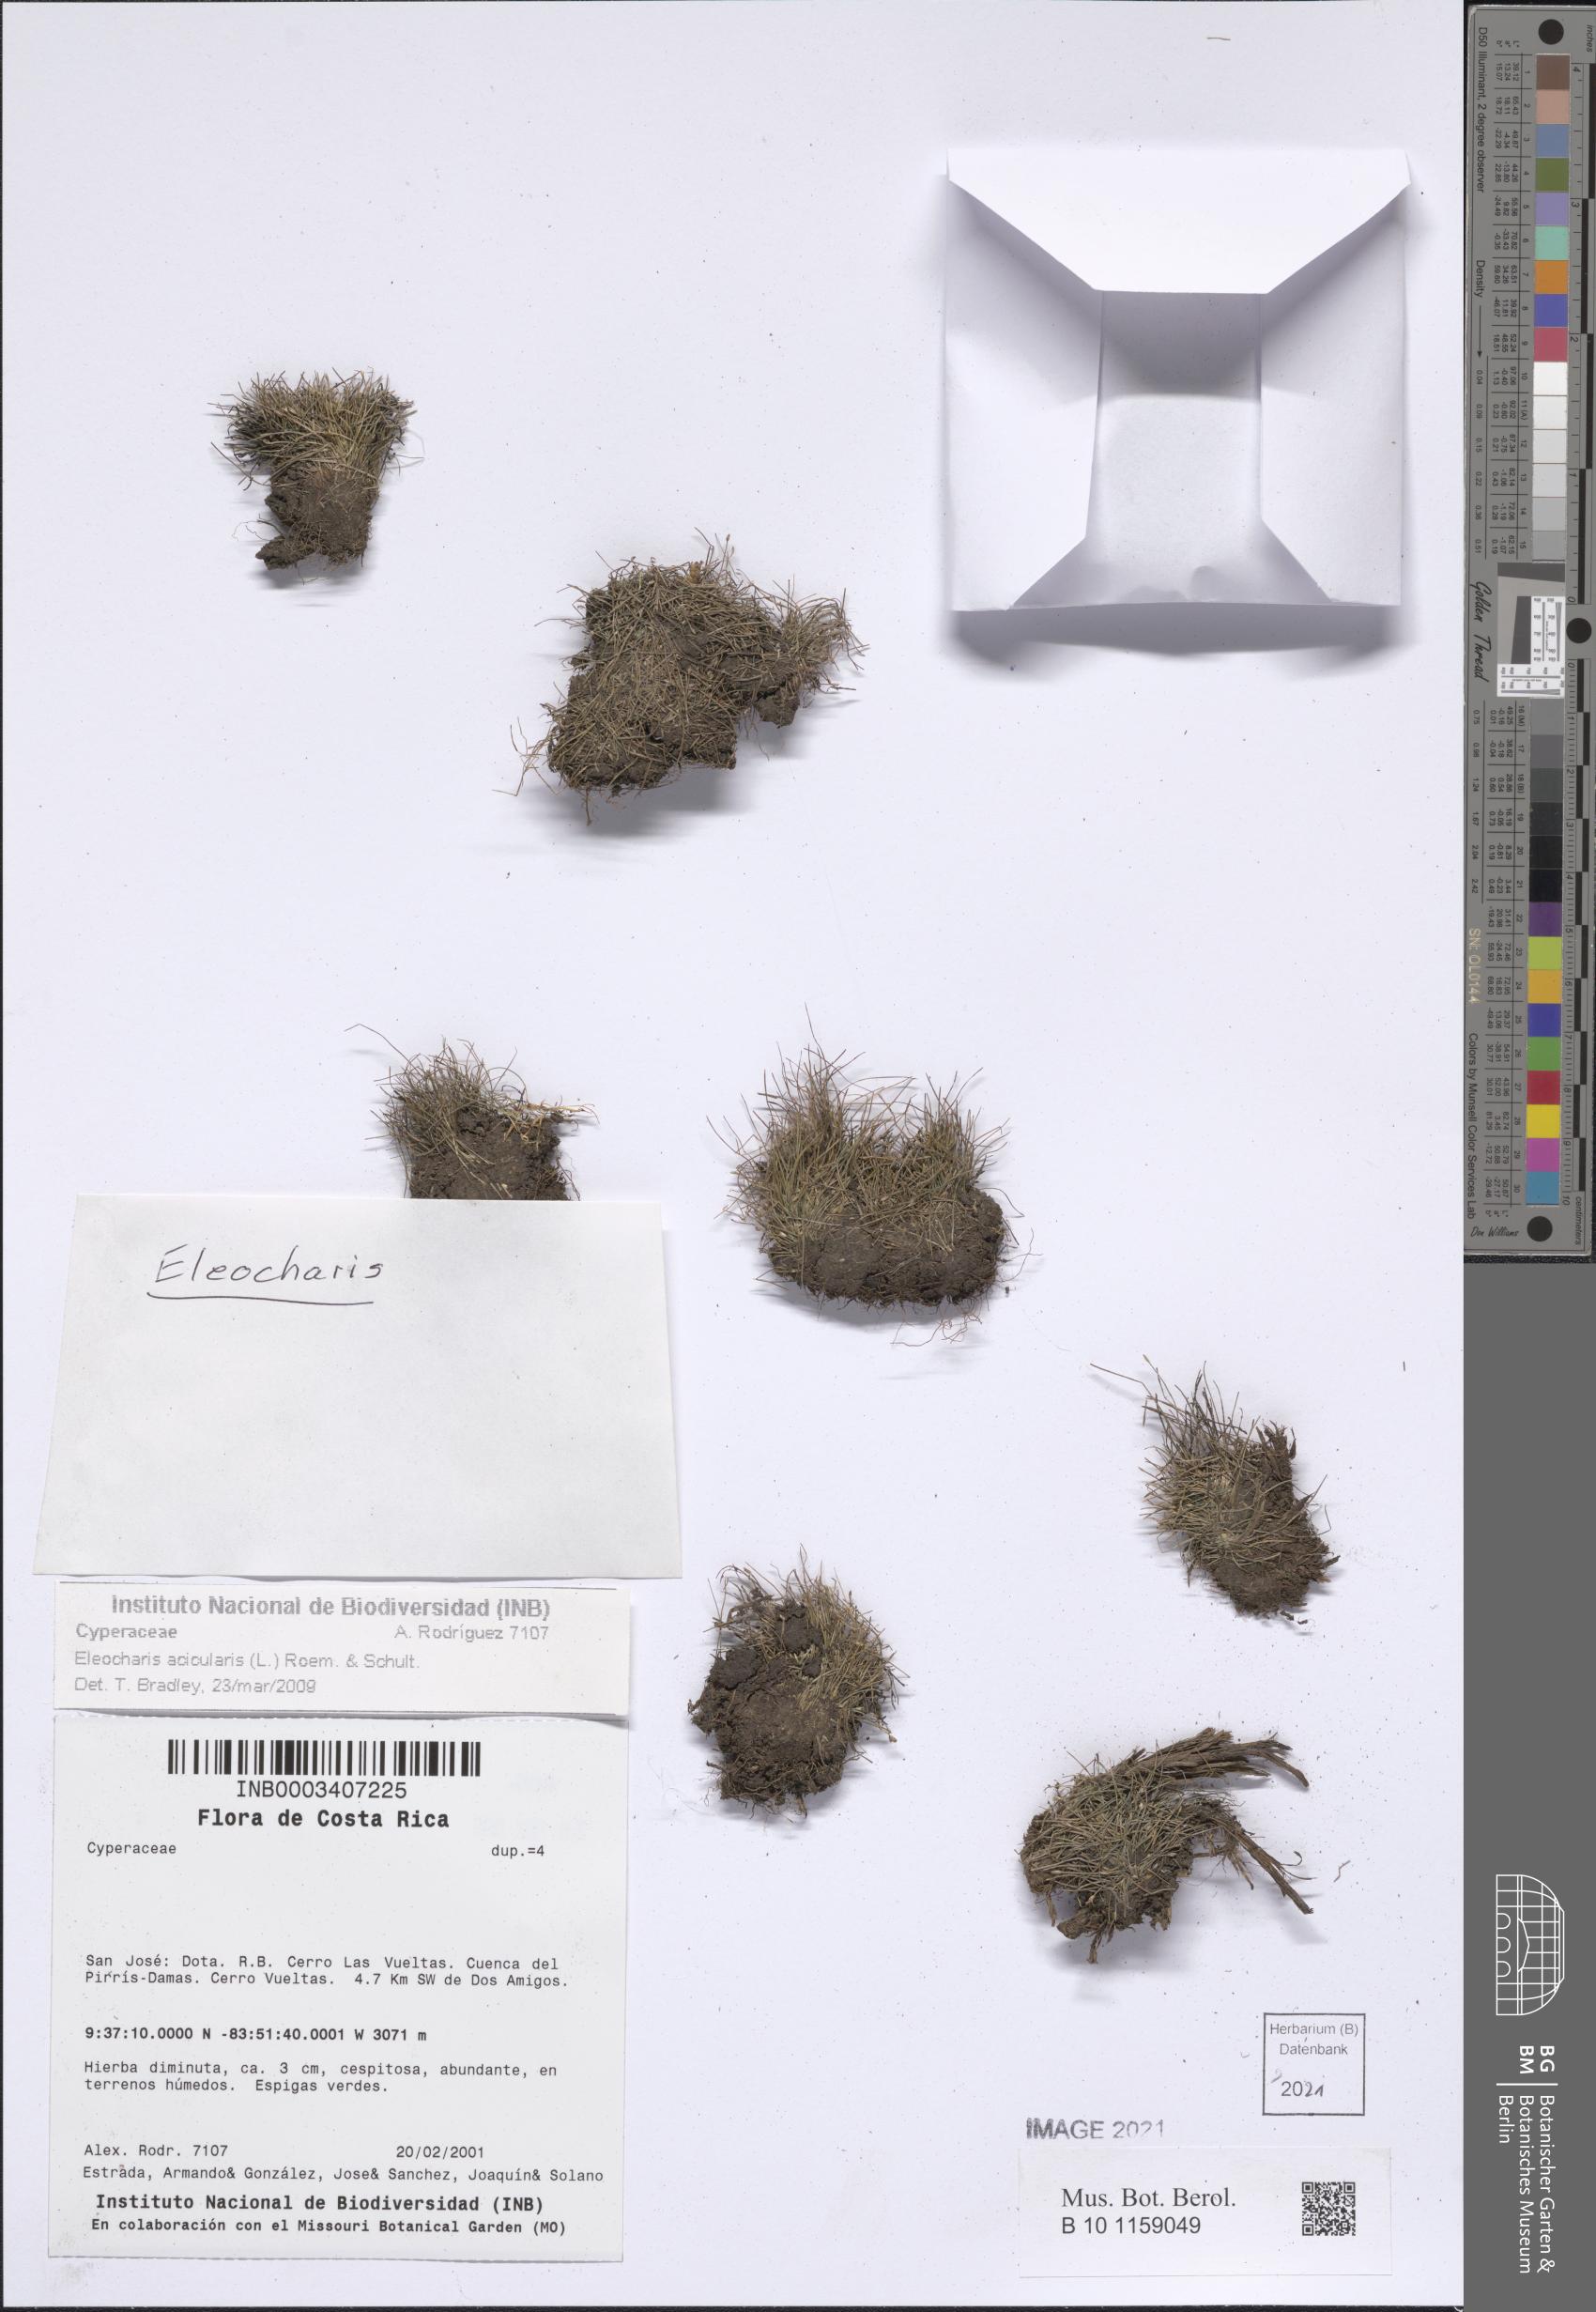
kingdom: Plantae
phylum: Tracheophyta
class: Liliopsida
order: Poales
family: Cyperaceae
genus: Eleocharis
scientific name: Eleocharis acicularis
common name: Needle spike-rush
